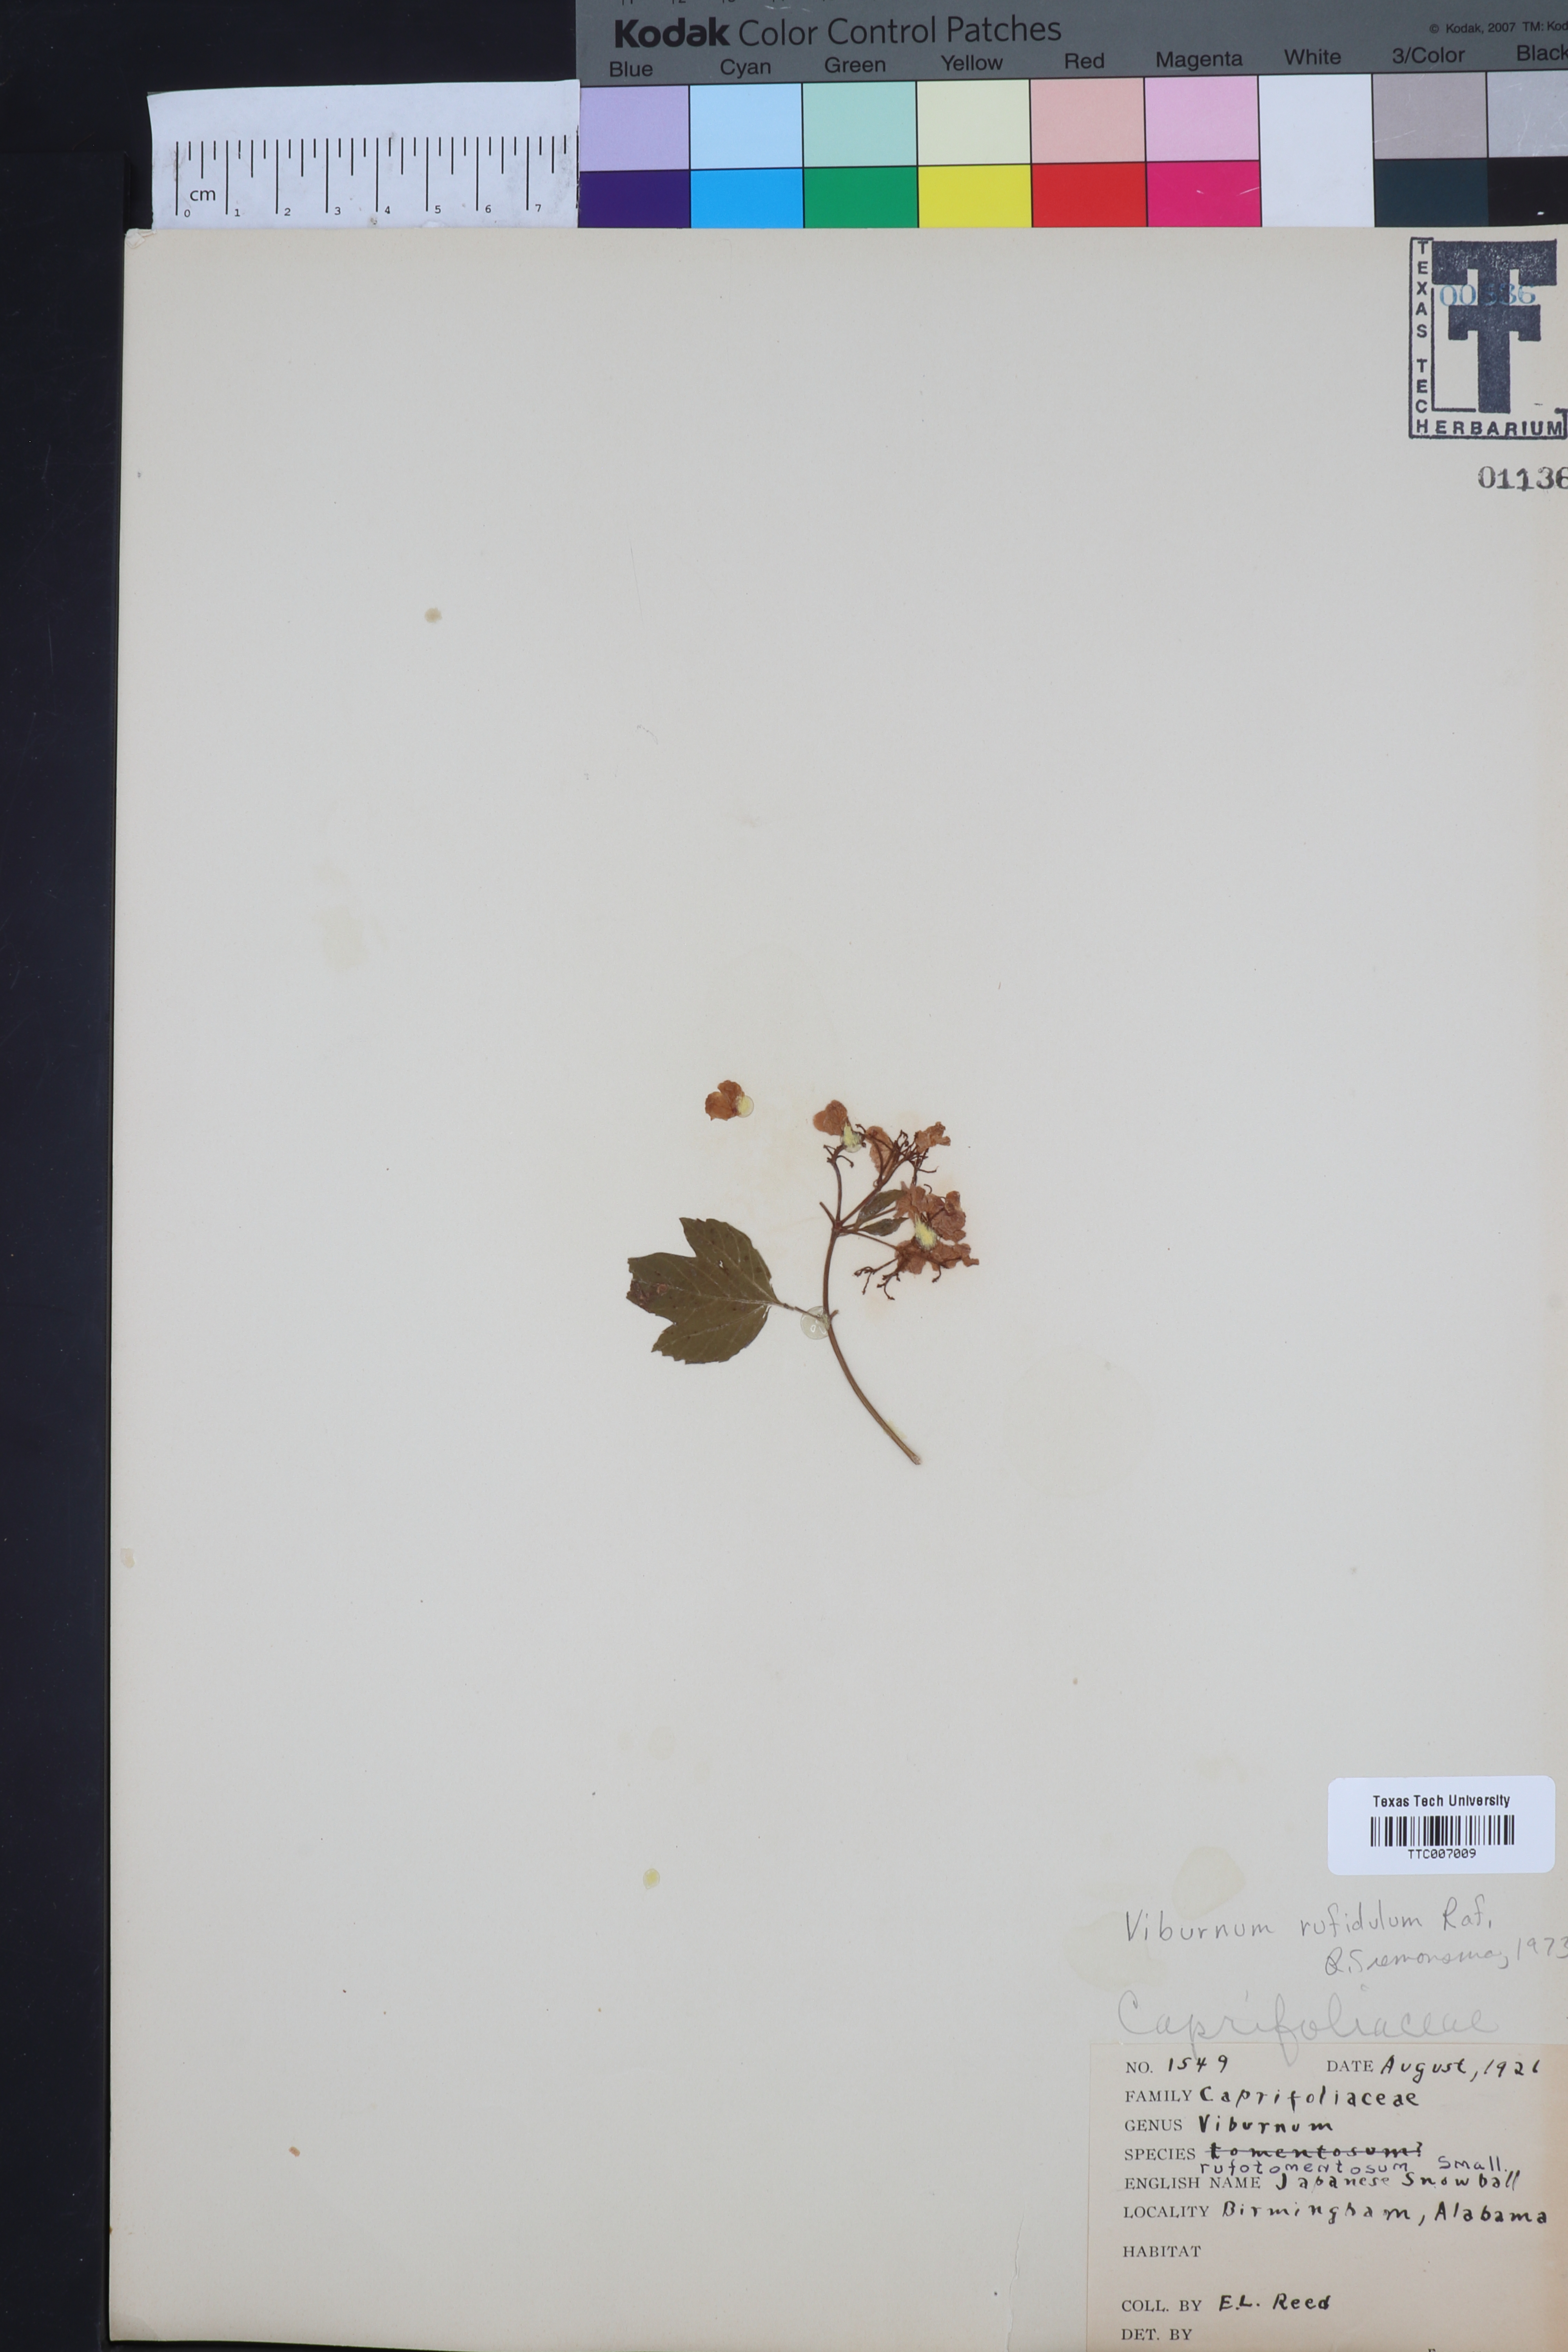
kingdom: Plantae
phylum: Tracheophyta
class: Magnoliopsida
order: Dipsacales
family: Viburnaceae
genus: Viburnum
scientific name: Viburnum rufidulum
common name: Blue haw
